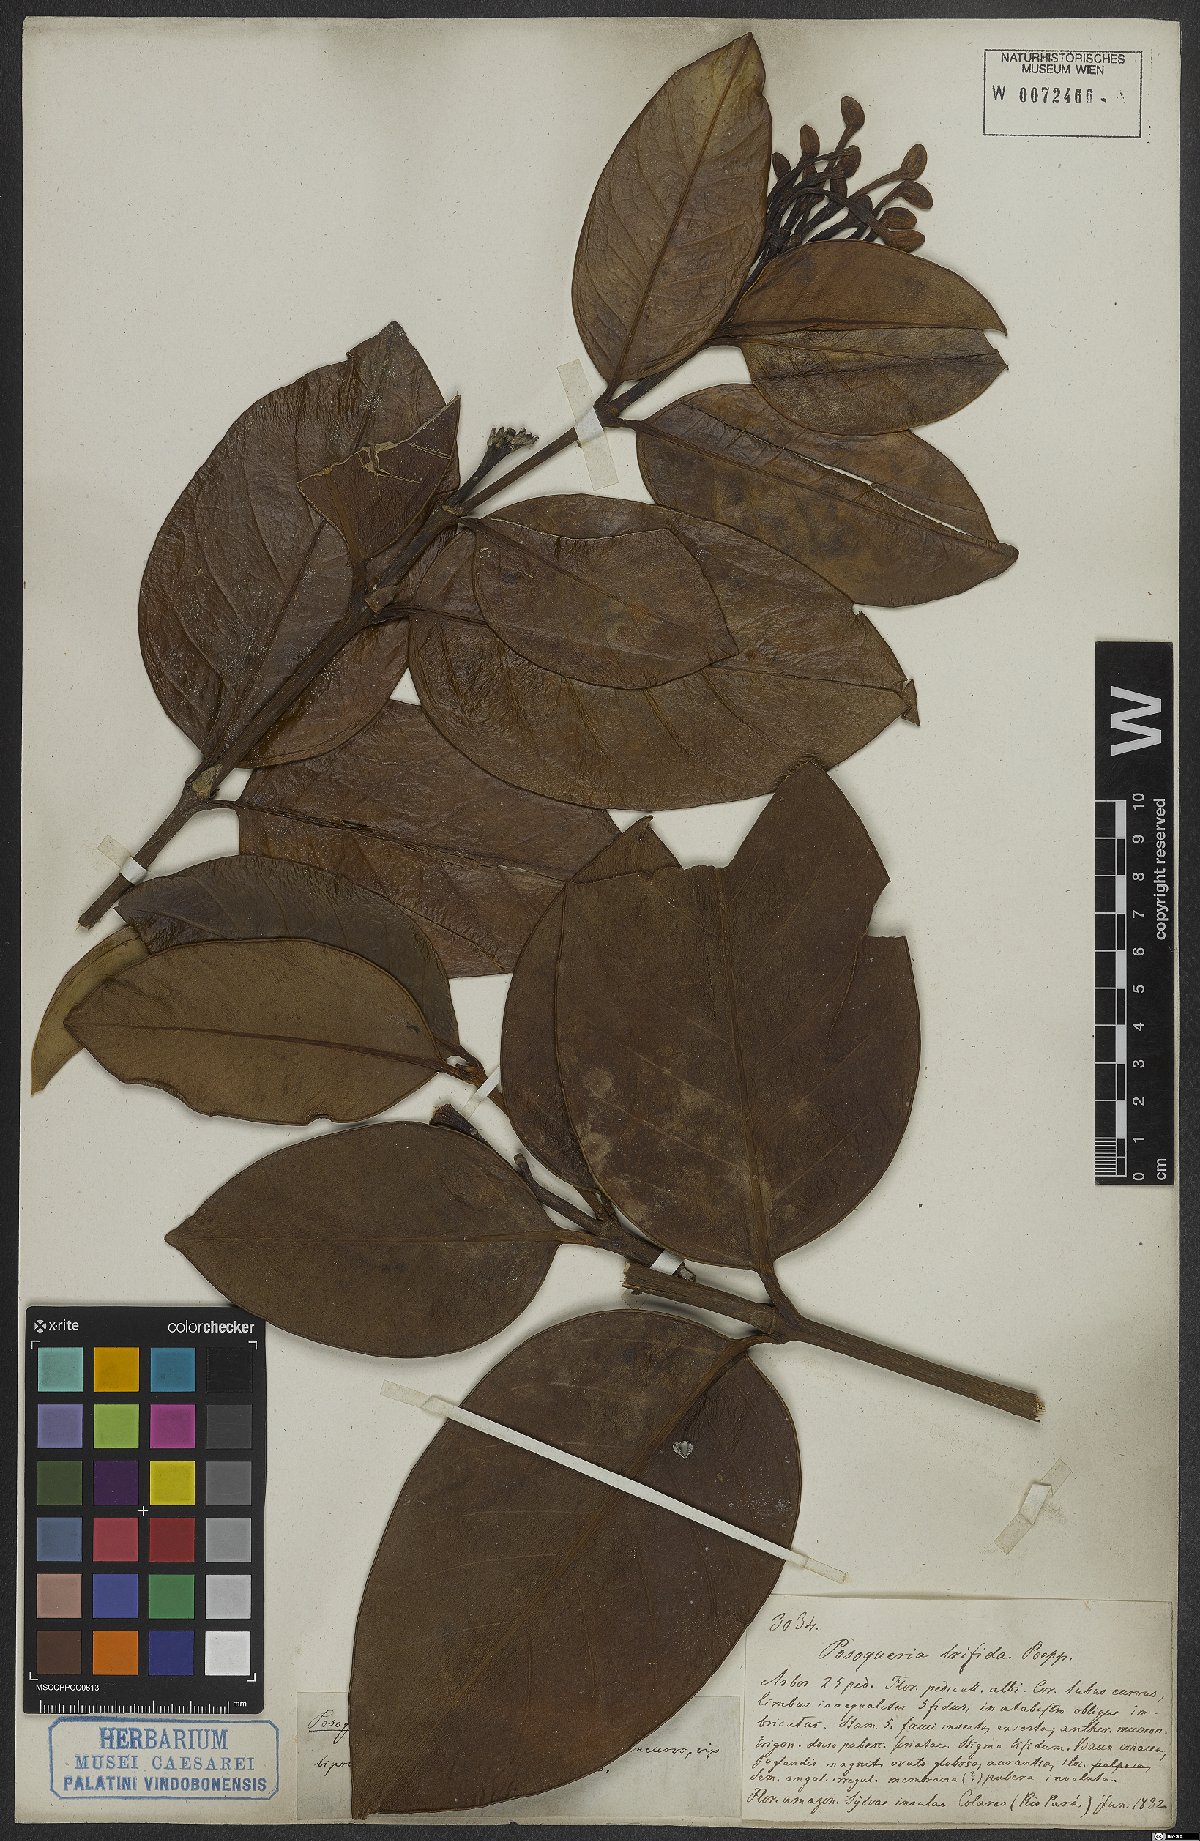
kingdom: Plantae
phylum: Tracheophyta
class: Magnoliopsida
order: Gentianales
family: Rubiaceae
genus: Posoqueria
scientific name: Posoqueria latifolia
